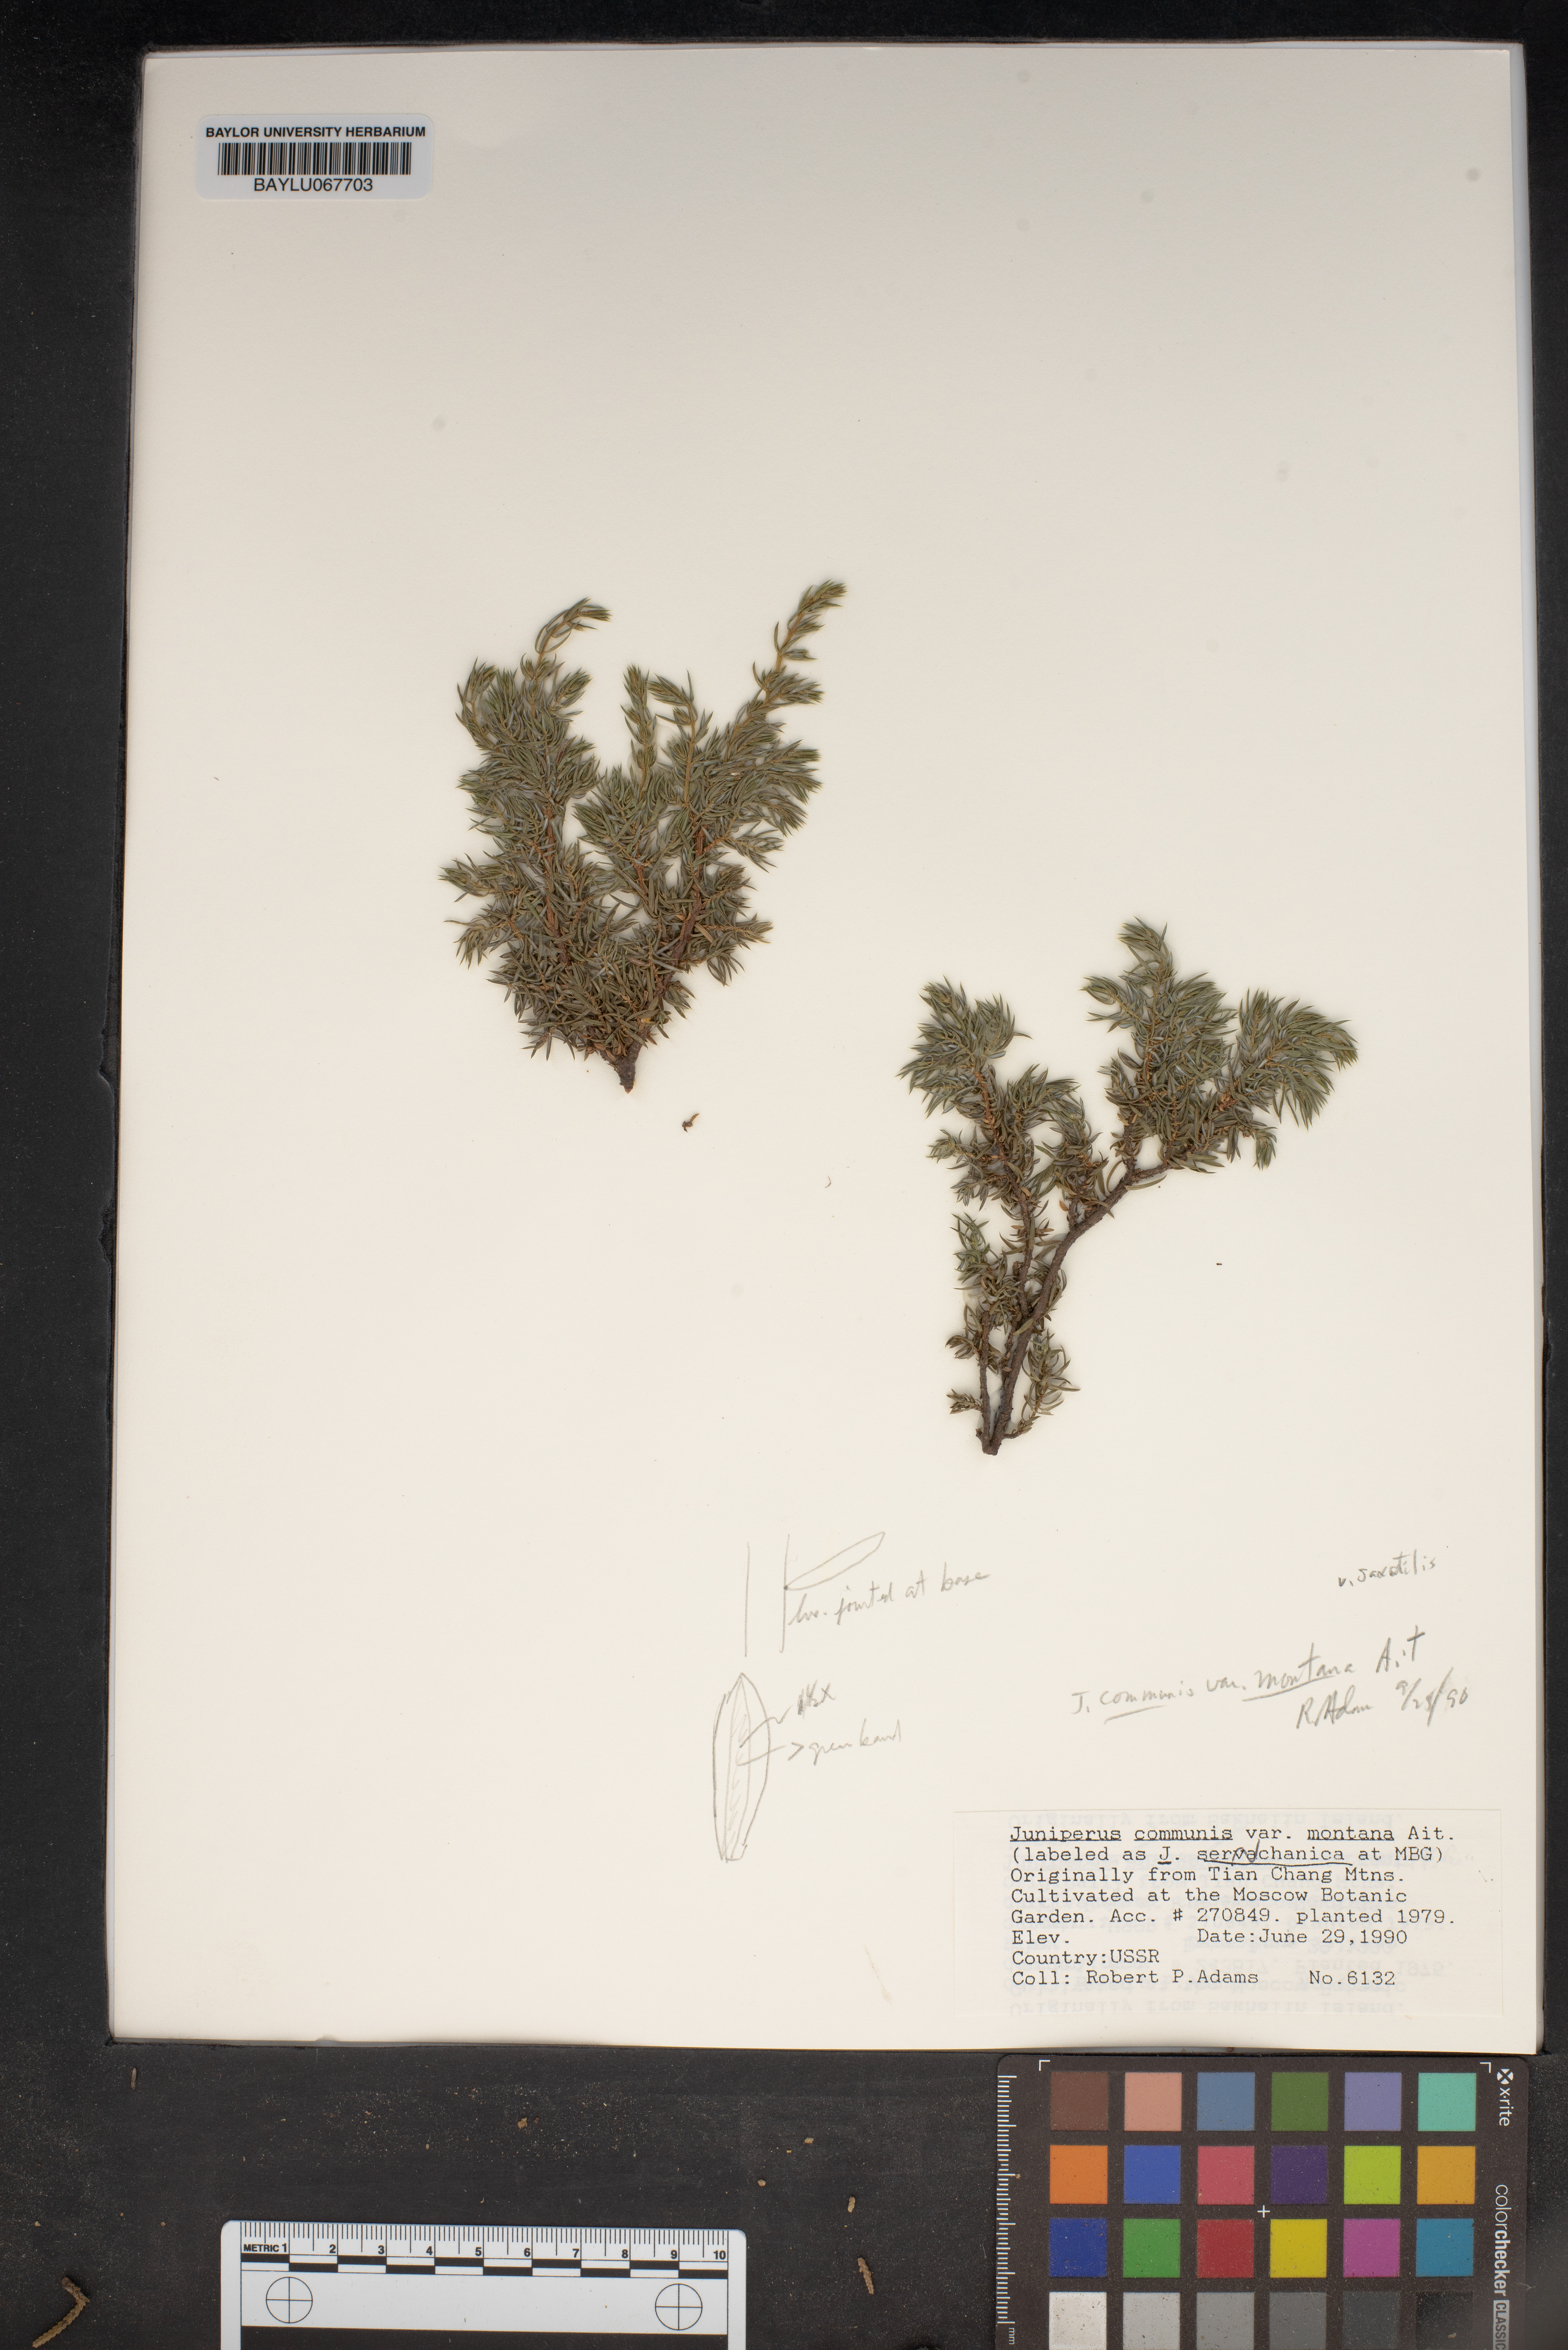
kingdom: Plantae
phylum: Tracheophyta
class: Pinopsida
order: Pinales
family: Cupressaceae
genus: Juniperus
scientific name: Juniperus communis
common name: Common juniper
